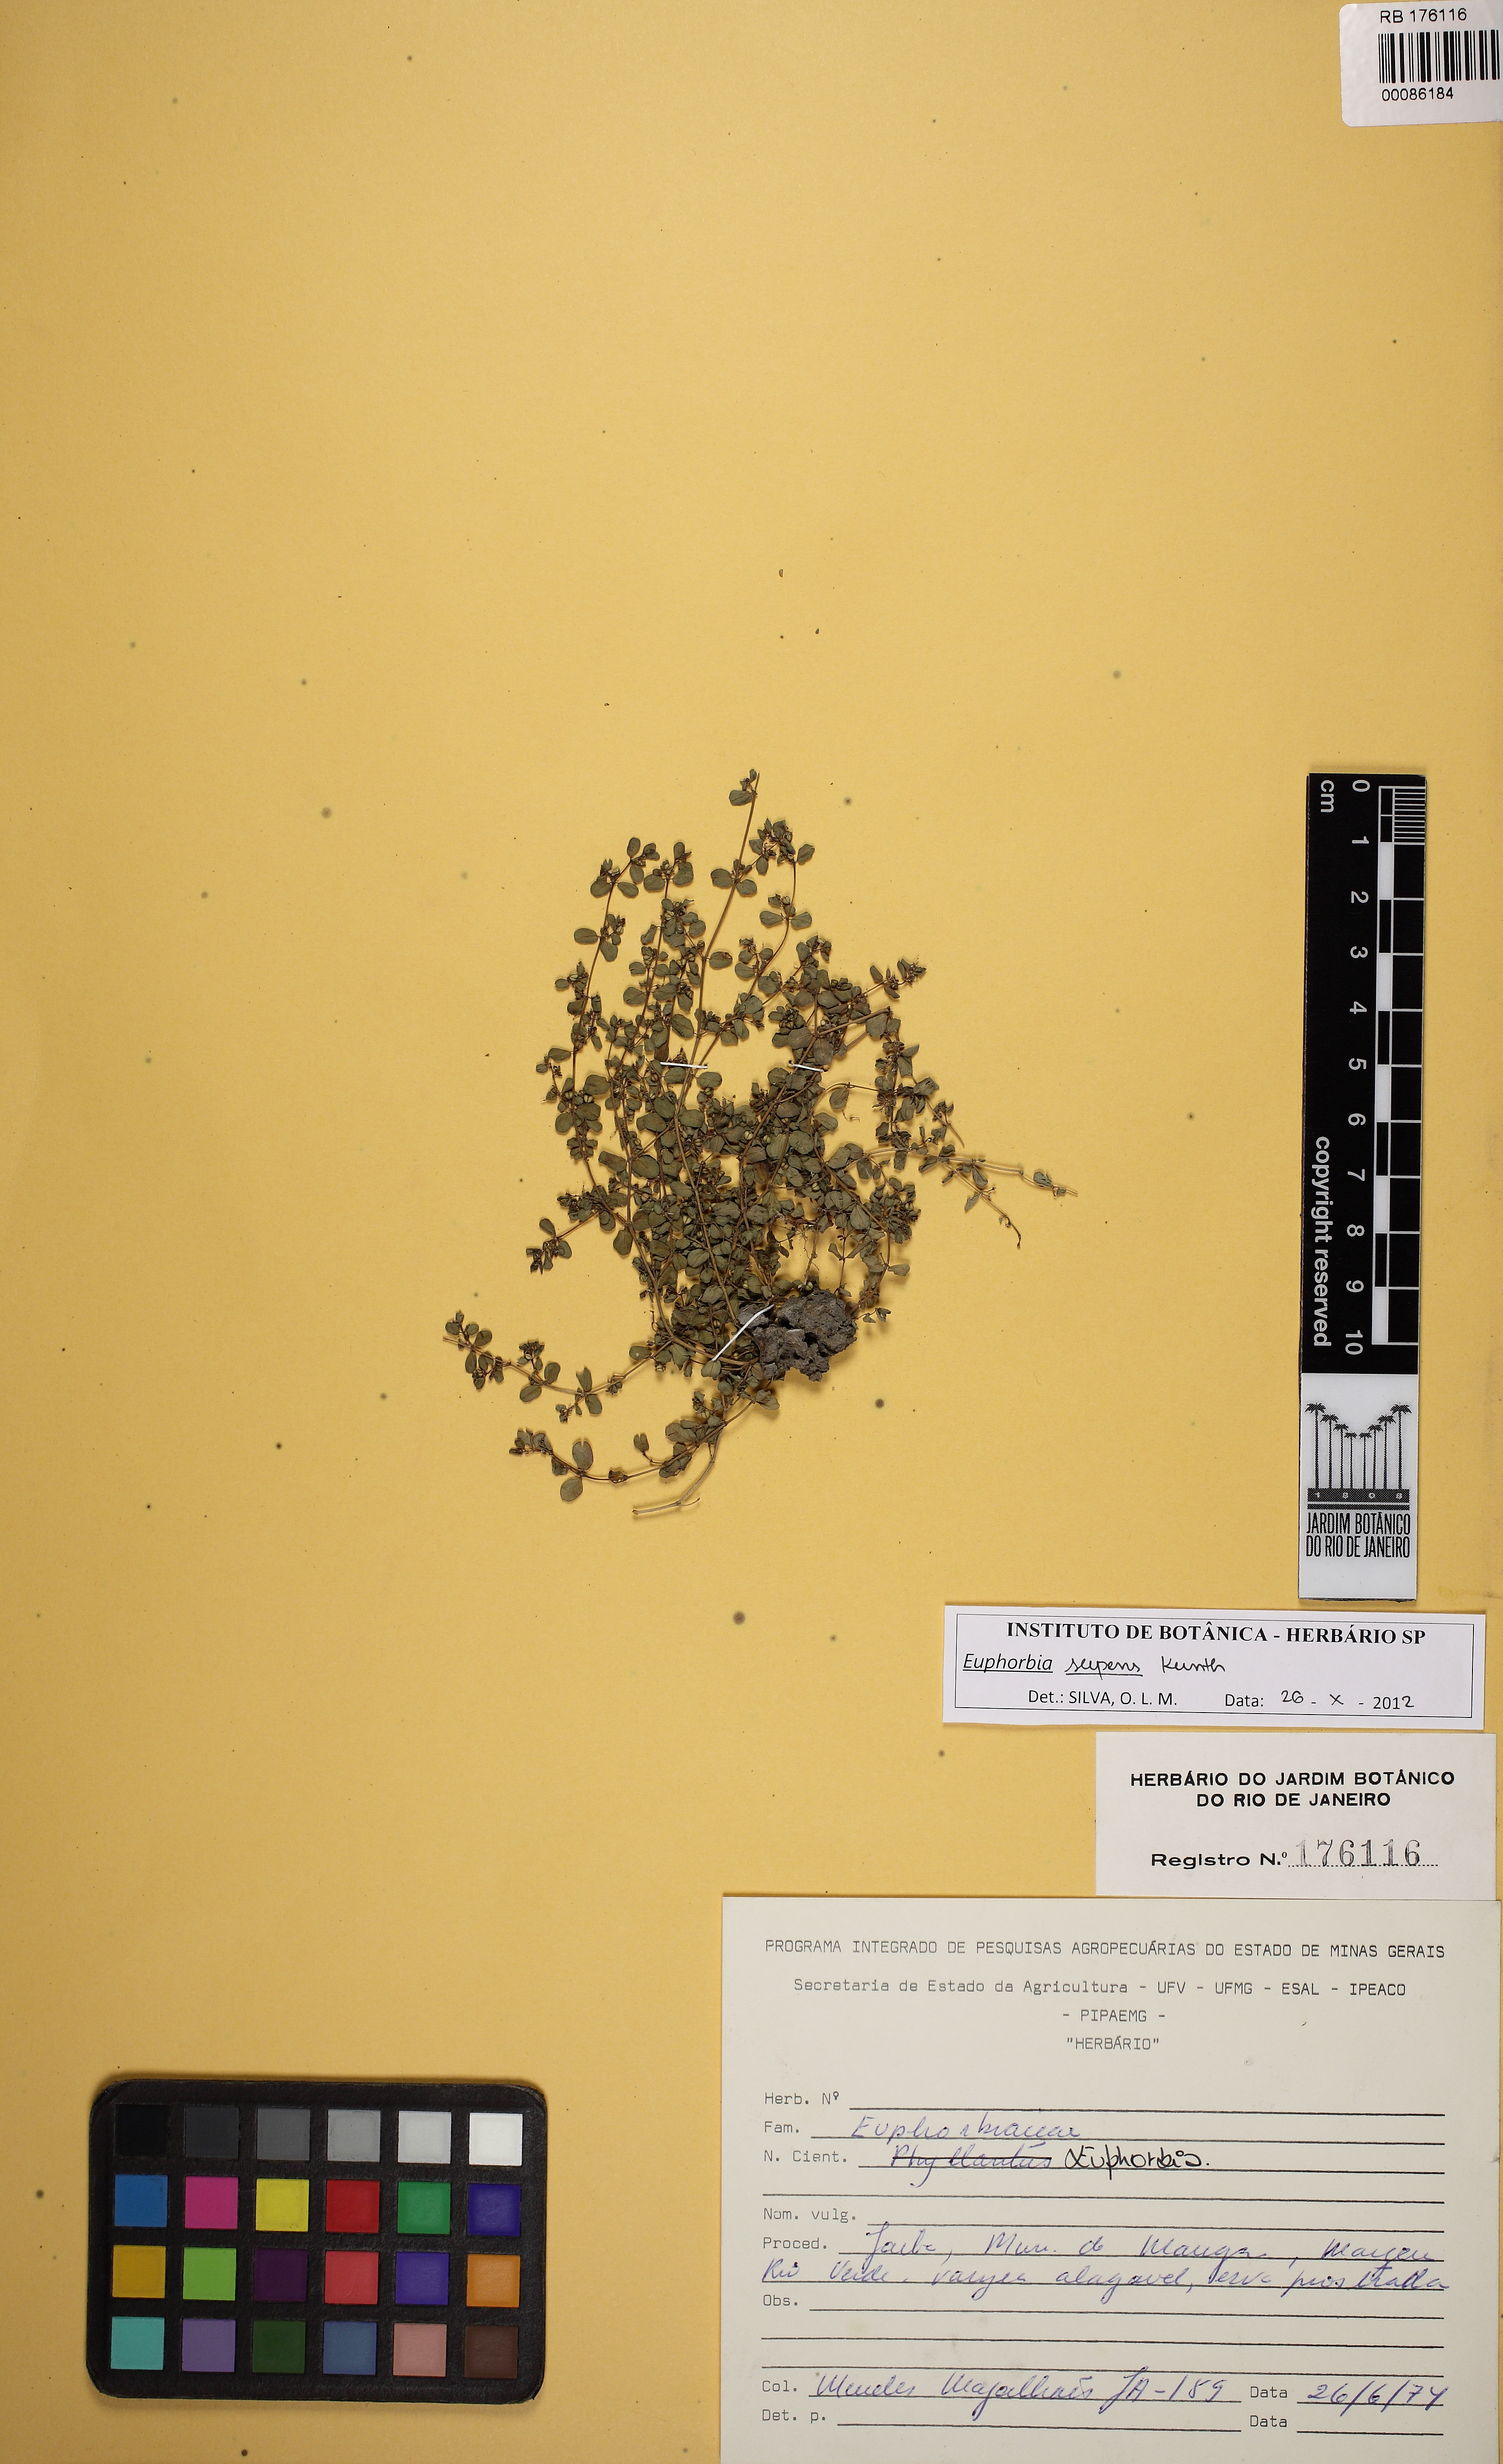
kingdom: Plantae
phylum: Tracheophyta
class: Magnoliopsida
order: Malpighiales
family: Euphorbiaceae
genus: Euphorbia
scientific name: Euphorbia serpens
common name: Matted sandmat
